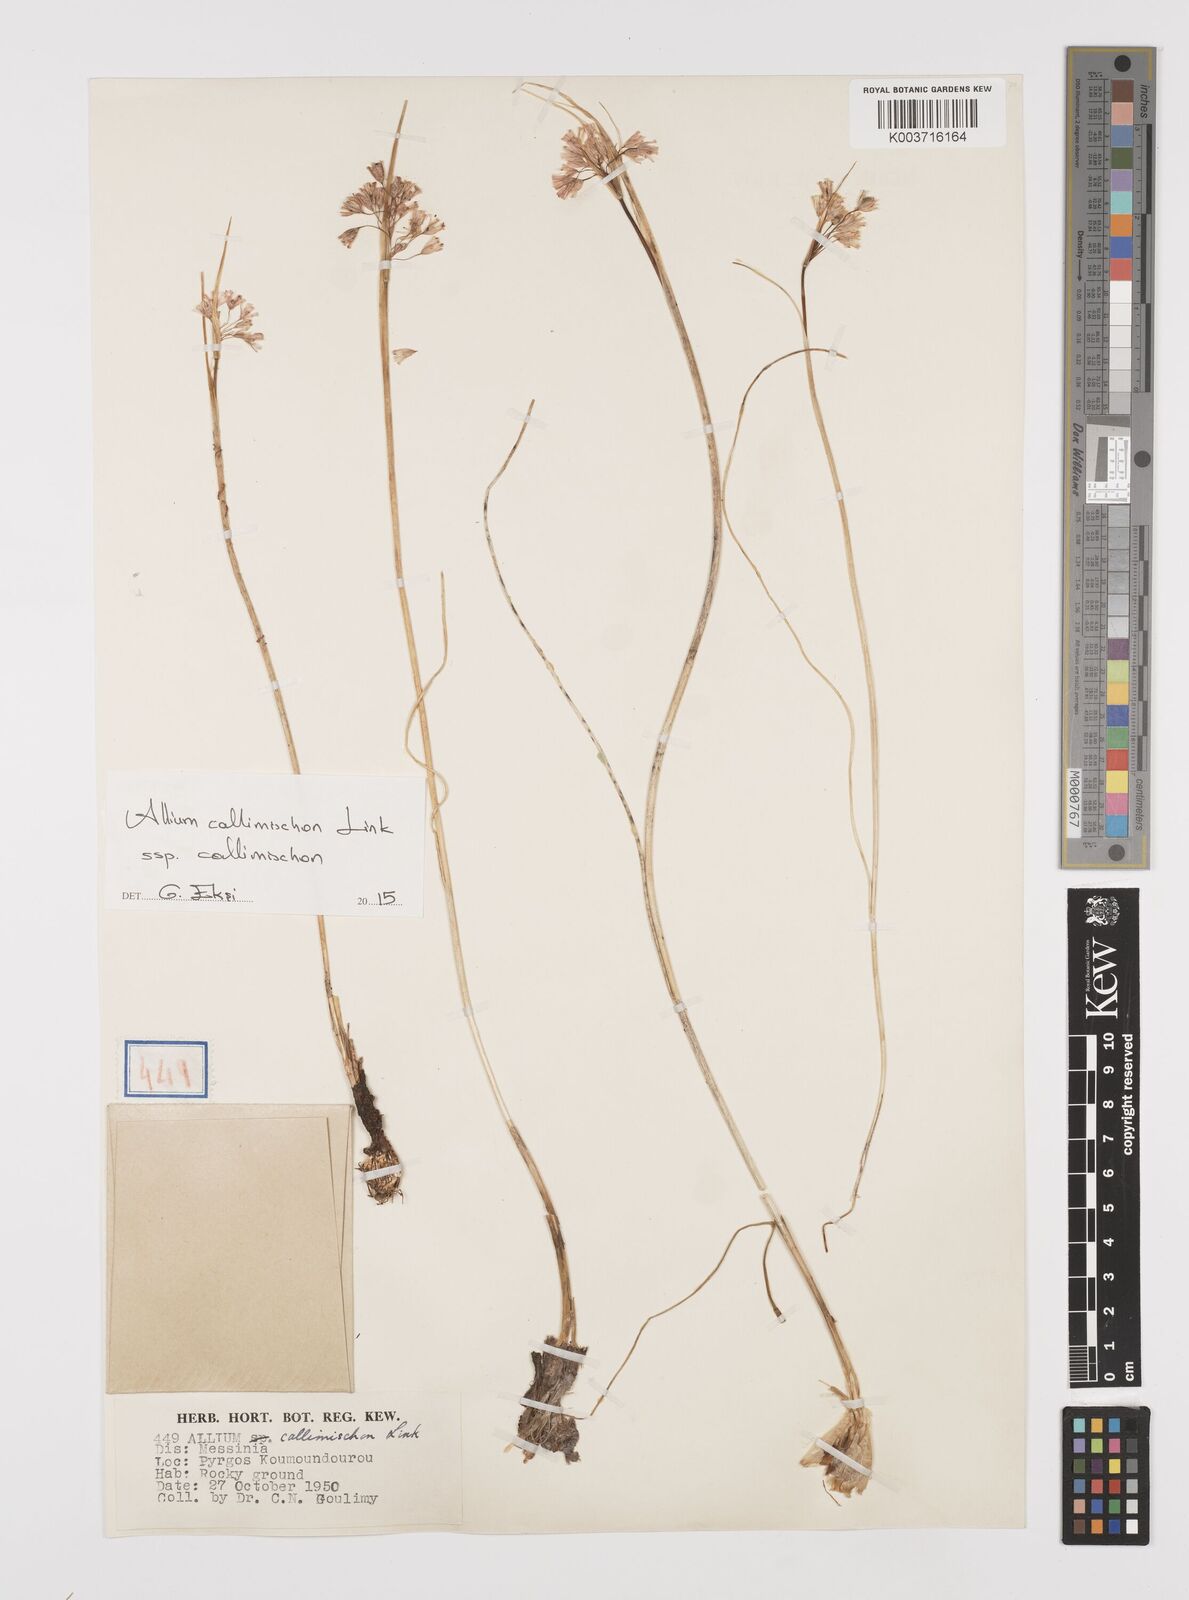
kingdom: Plantae
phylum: Tracheophyta
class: Liliopsida
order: Asparagales
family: Amaryllidaceae
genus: Allium
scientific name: Allium callimischon
